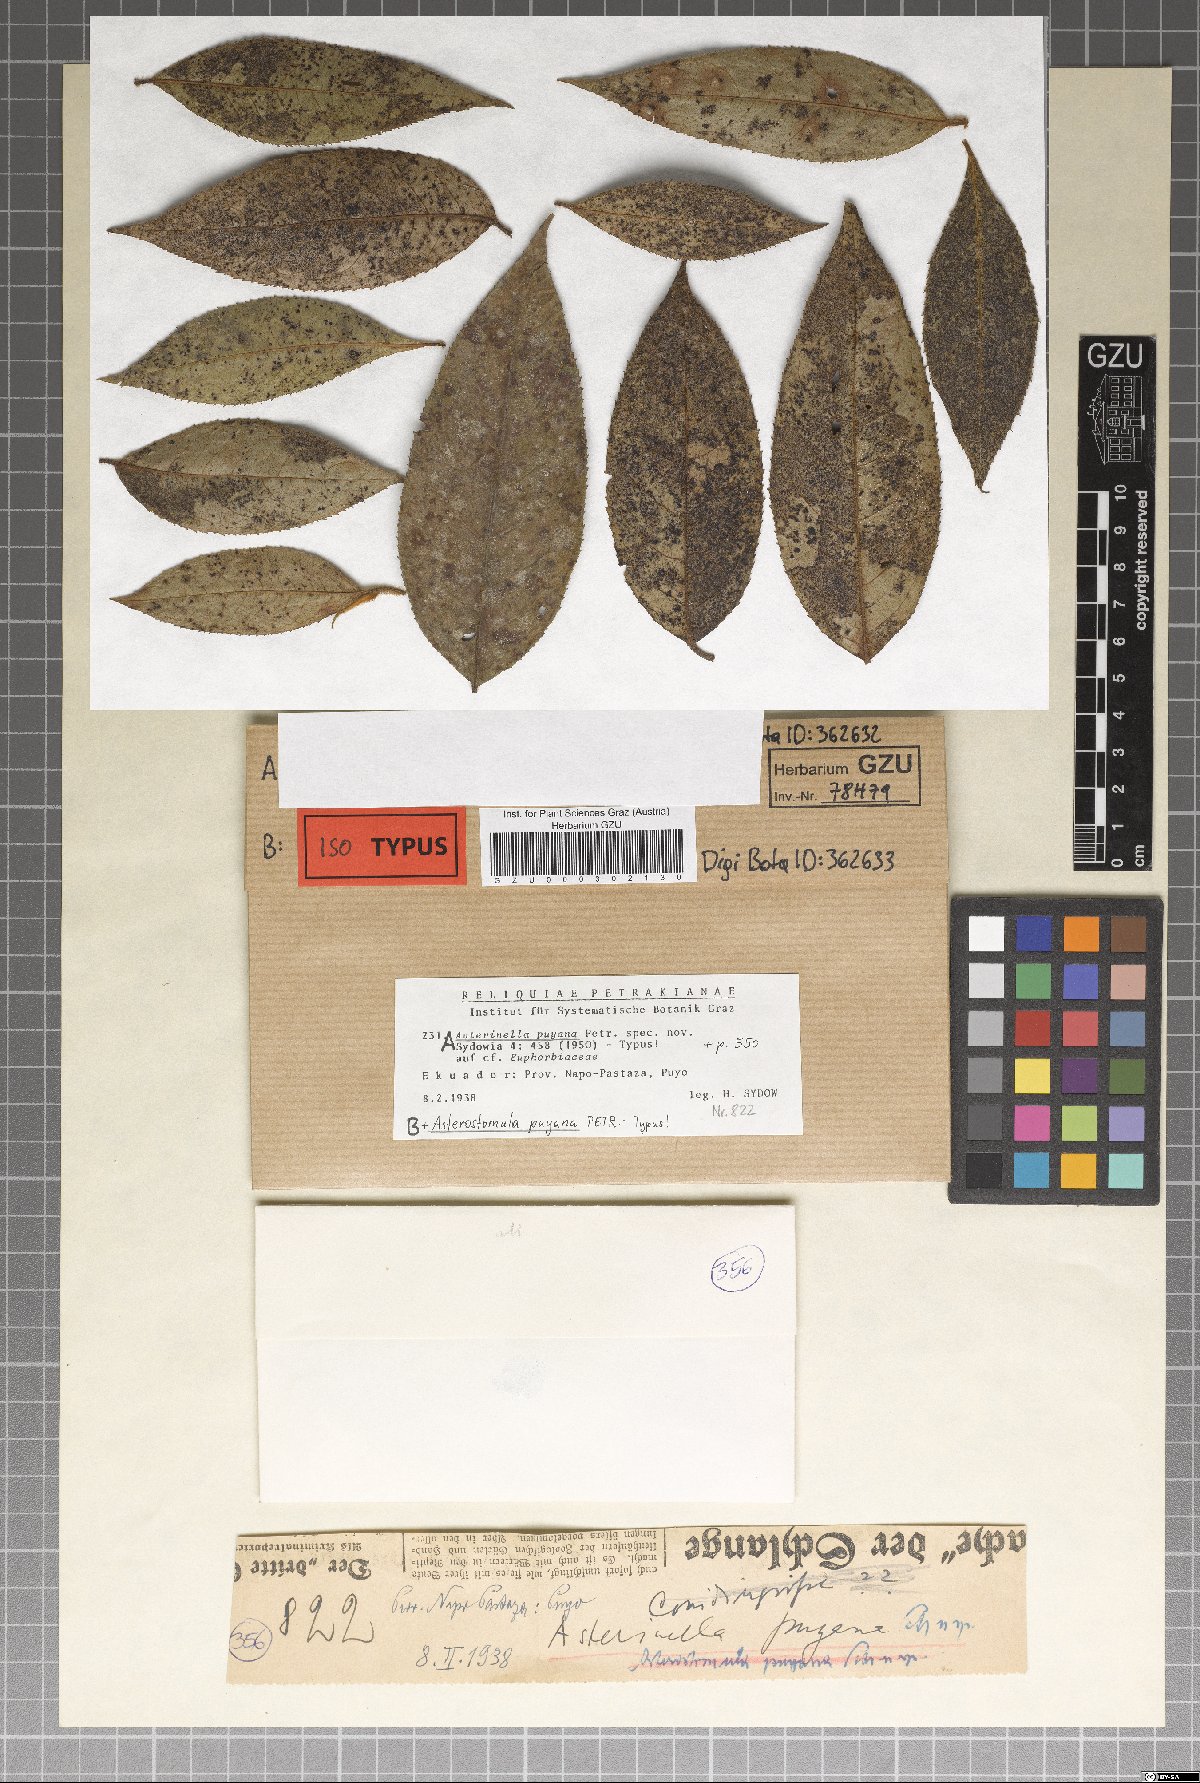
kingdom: Fungi
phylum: Ascomycota
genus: Asterostomula
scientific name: Asterostomula puyana
